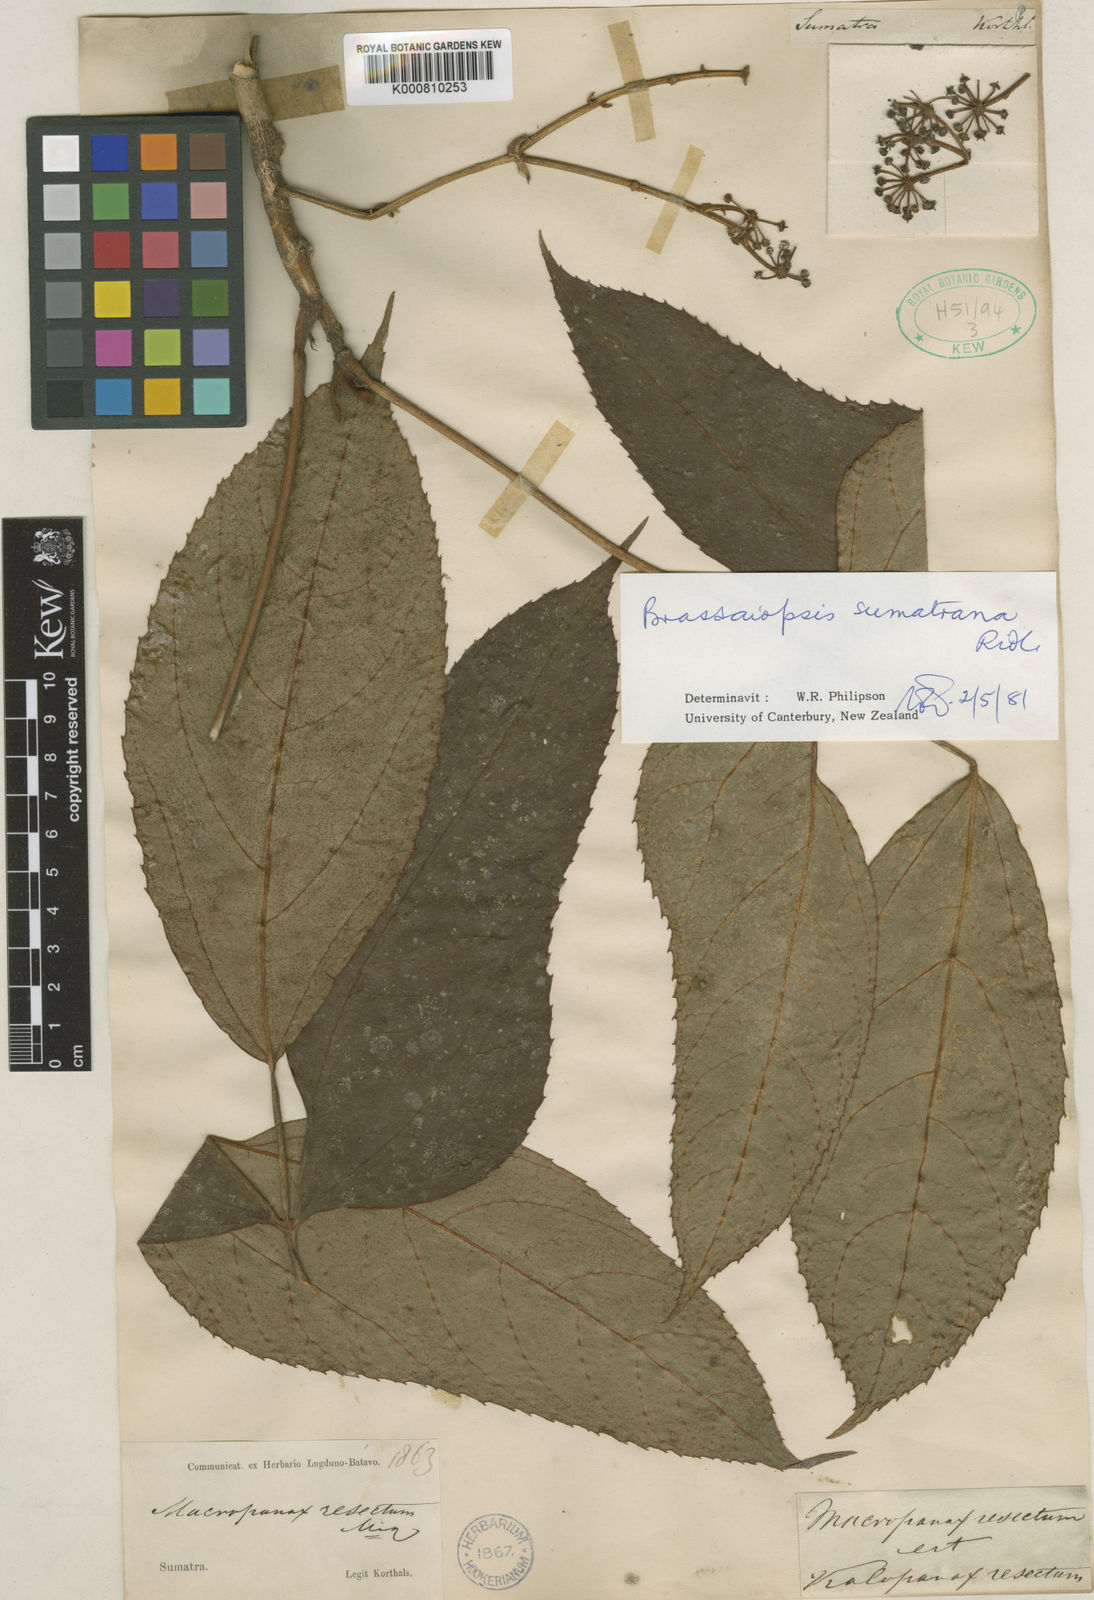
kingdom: Plantae
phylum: Tracheophyta
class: Magnoliopsida
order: Apiales
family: Araliaceae
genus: Brassaiopsis
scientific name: Brassaiopsis sumatrana
